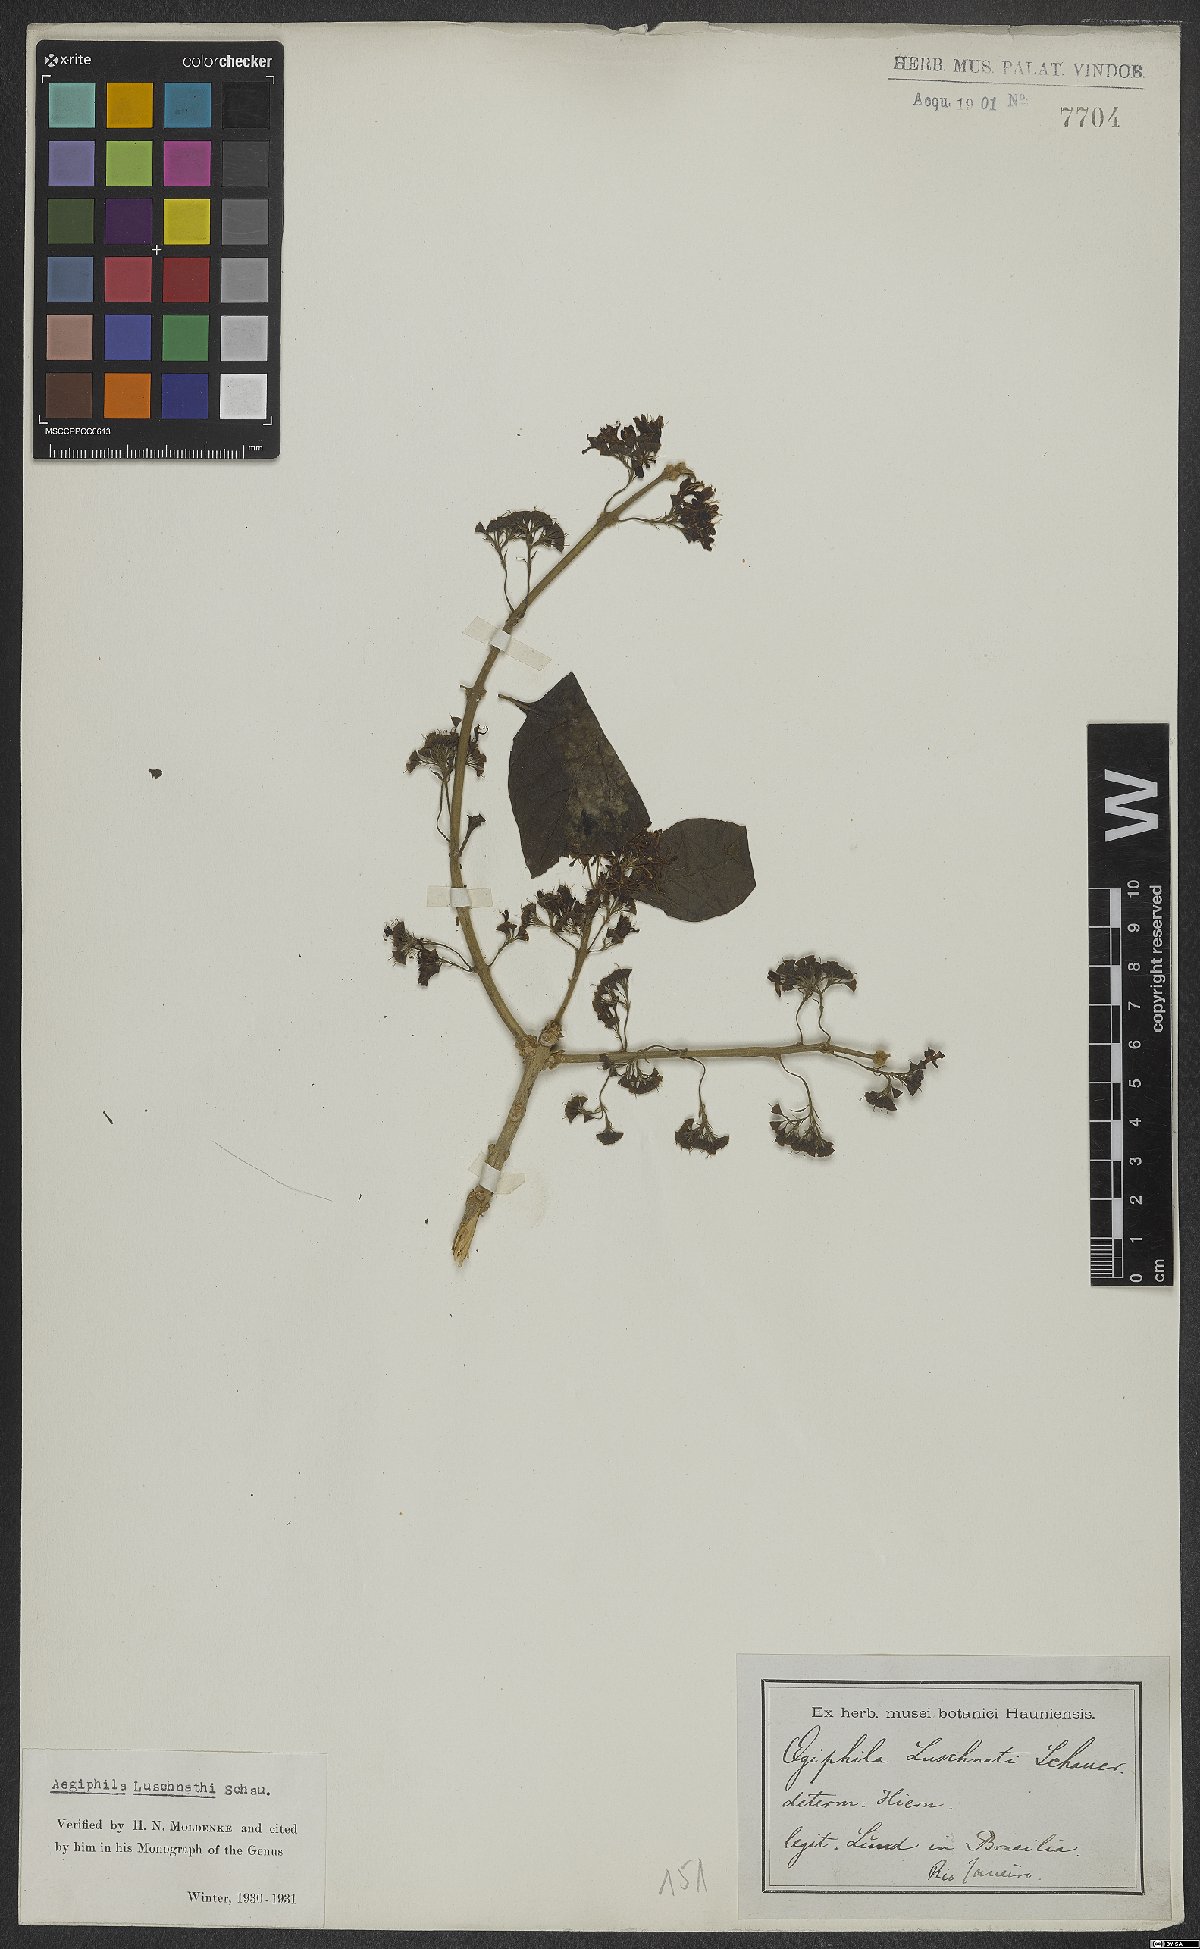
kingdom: Plantae
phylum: Tracheophyta
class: Magnoliopsida
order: Lamiales
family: Lamiaceae
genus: Aegiphila
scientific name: Aegiphila luschnathii
